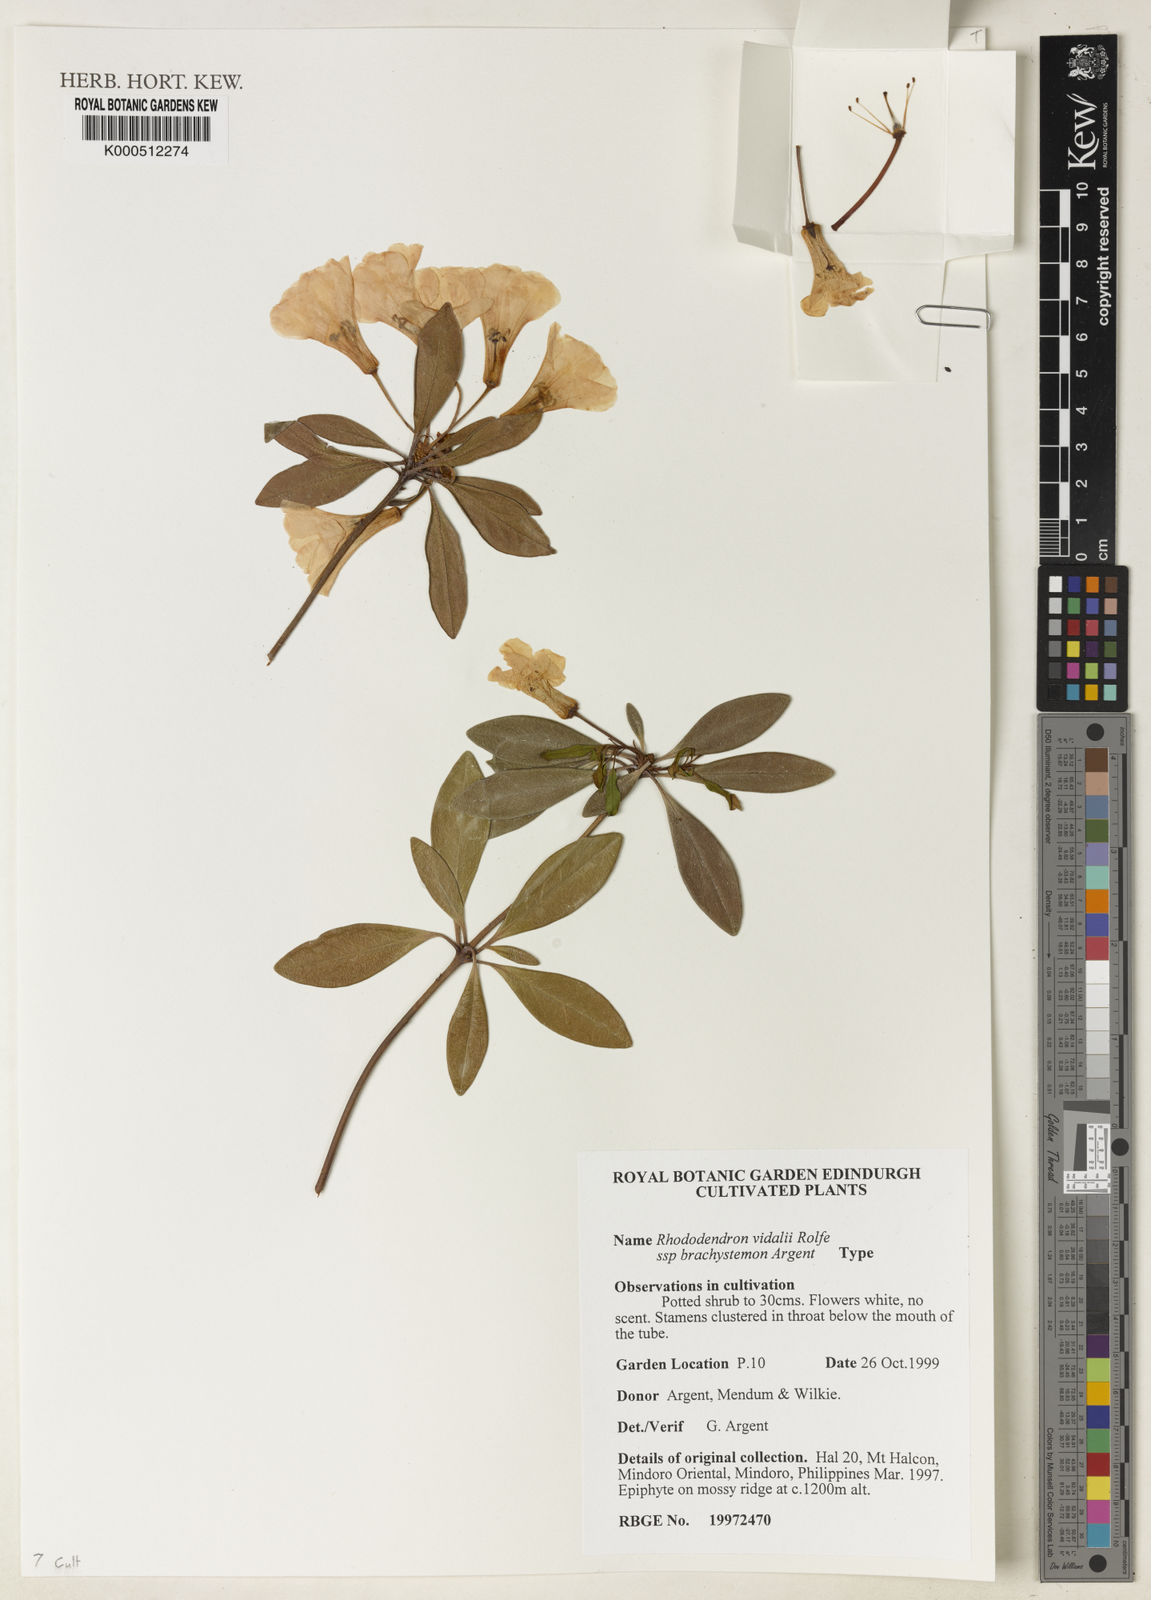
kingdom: Plantae
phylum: Tracheophyta
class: Magnoliopsida
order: Ericales
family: Ericaceae
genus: Rhododendron
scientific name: Rhododendron vidalii
